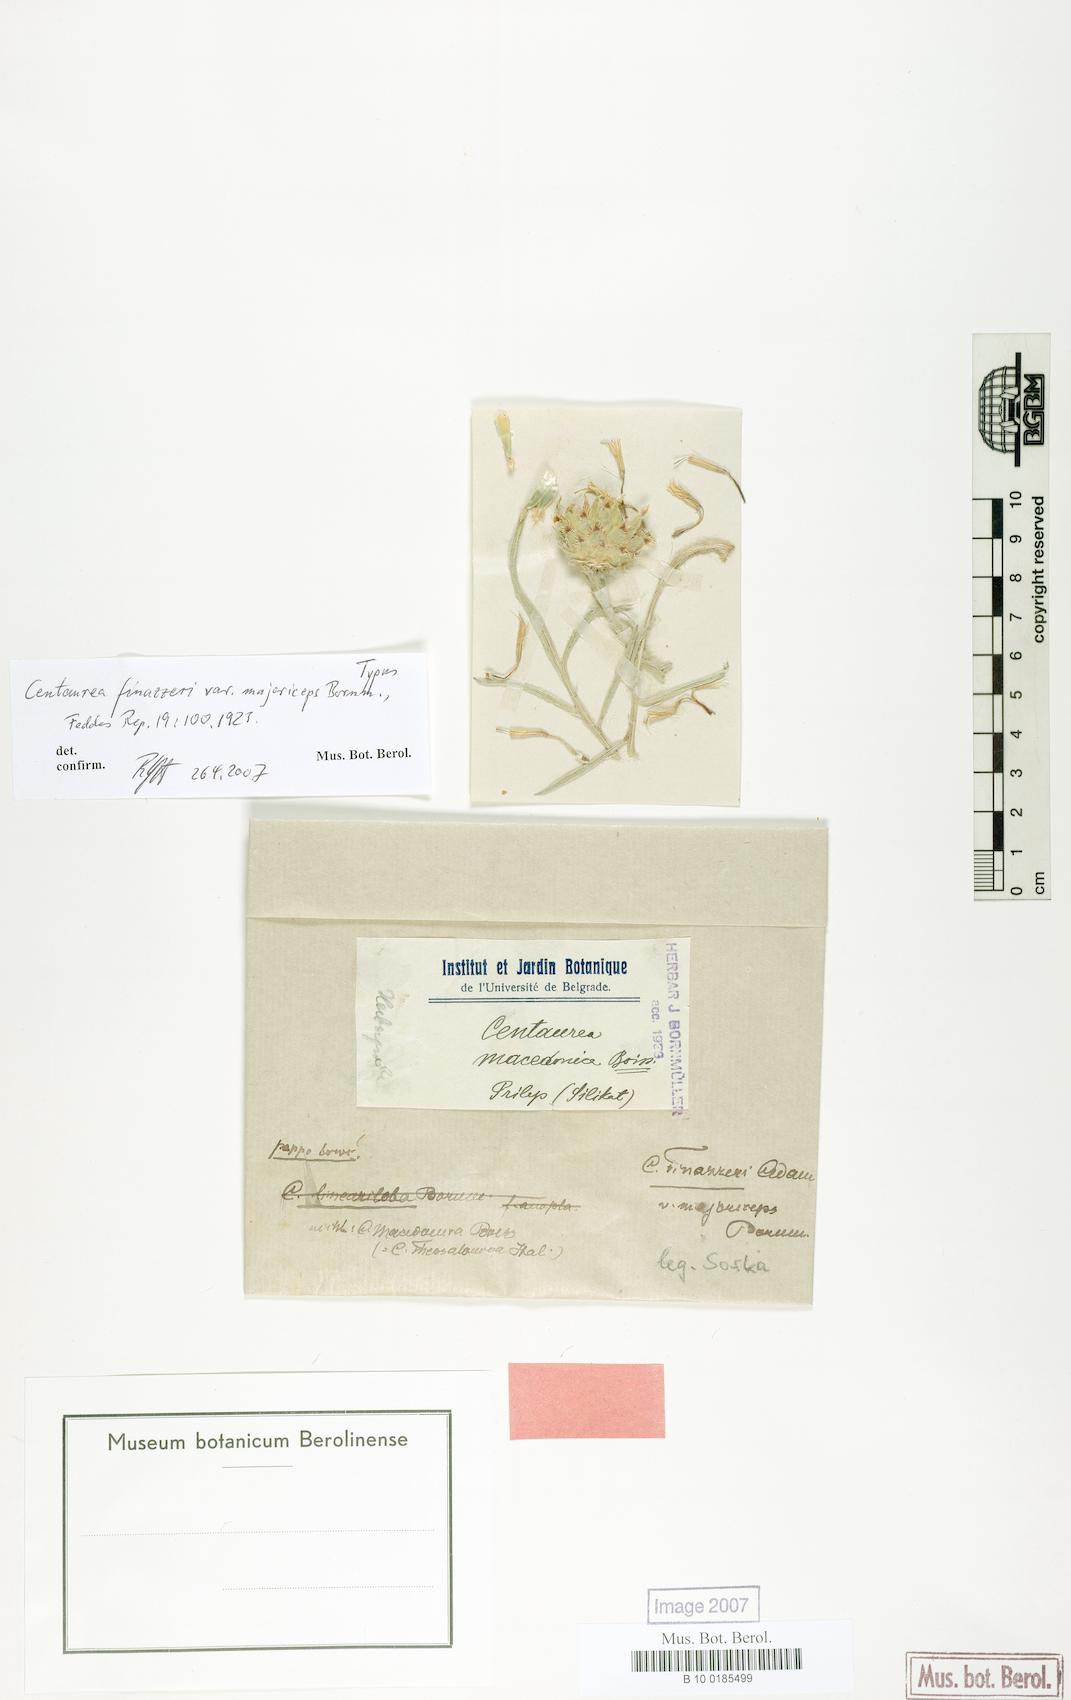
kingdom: Plantae
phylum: Tracheophyta
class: Magnoliopsida
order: Asterales
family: Asteraceae
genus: Centaurea
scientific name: Centaurea finazzeri
